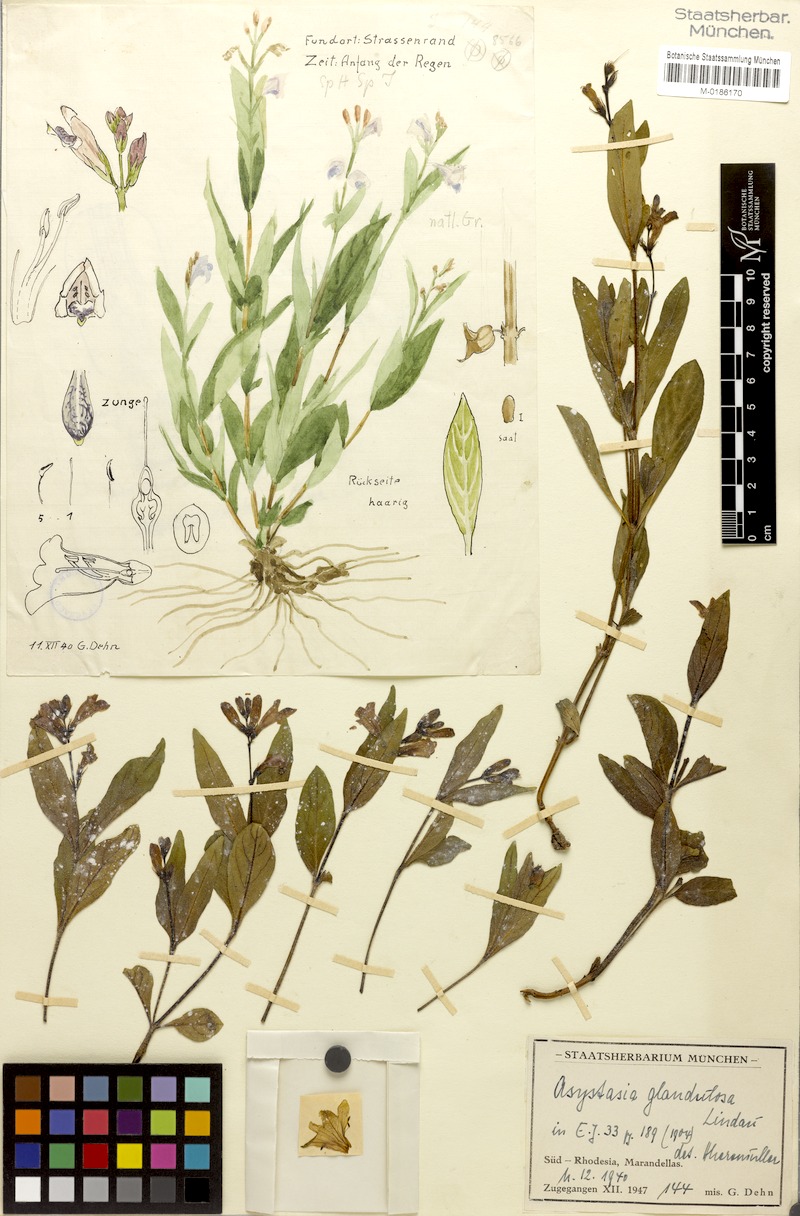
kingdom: Plantae
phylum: Tracheophyta
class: Magnoliopsida
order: Lamiales
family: Acanthaceae
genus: Asystasia
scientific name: Asystasia glandulosa
